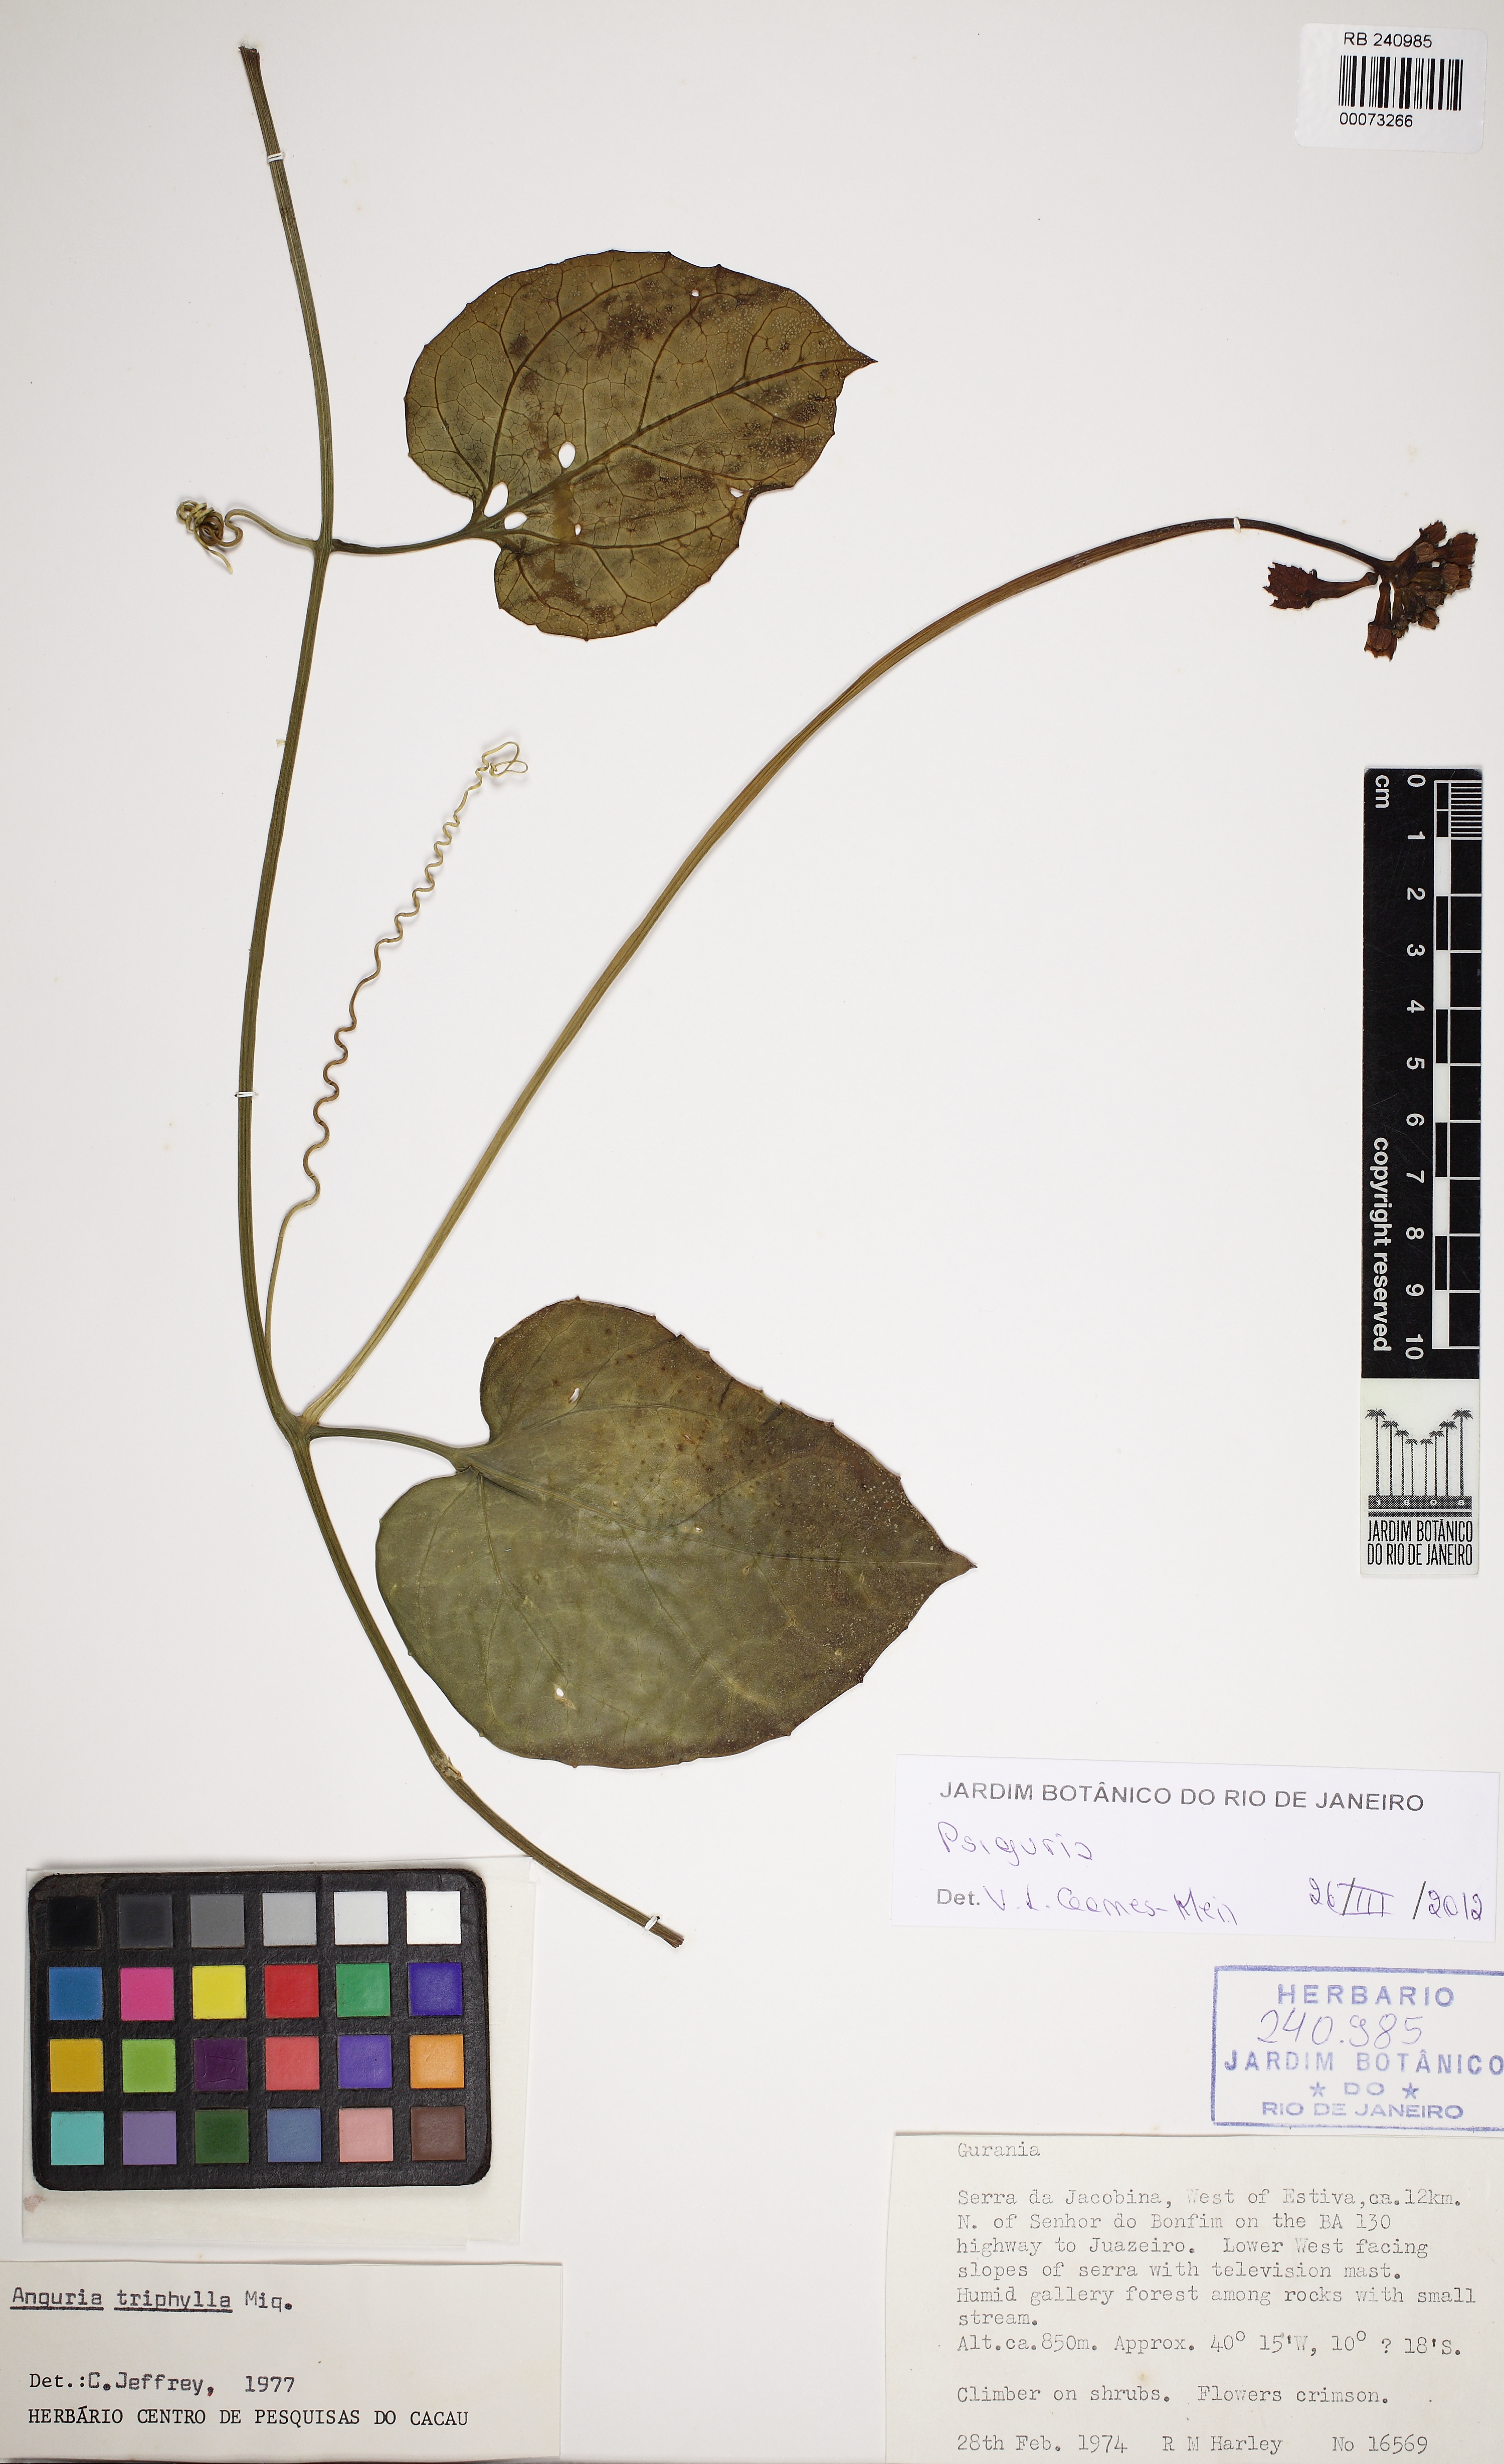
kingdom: Plantae
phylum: Tracheophyta
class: Magnoliopsida
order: Cucurbitales
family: Cucurbitaceae
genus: Psiguria
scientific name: Psiguria
